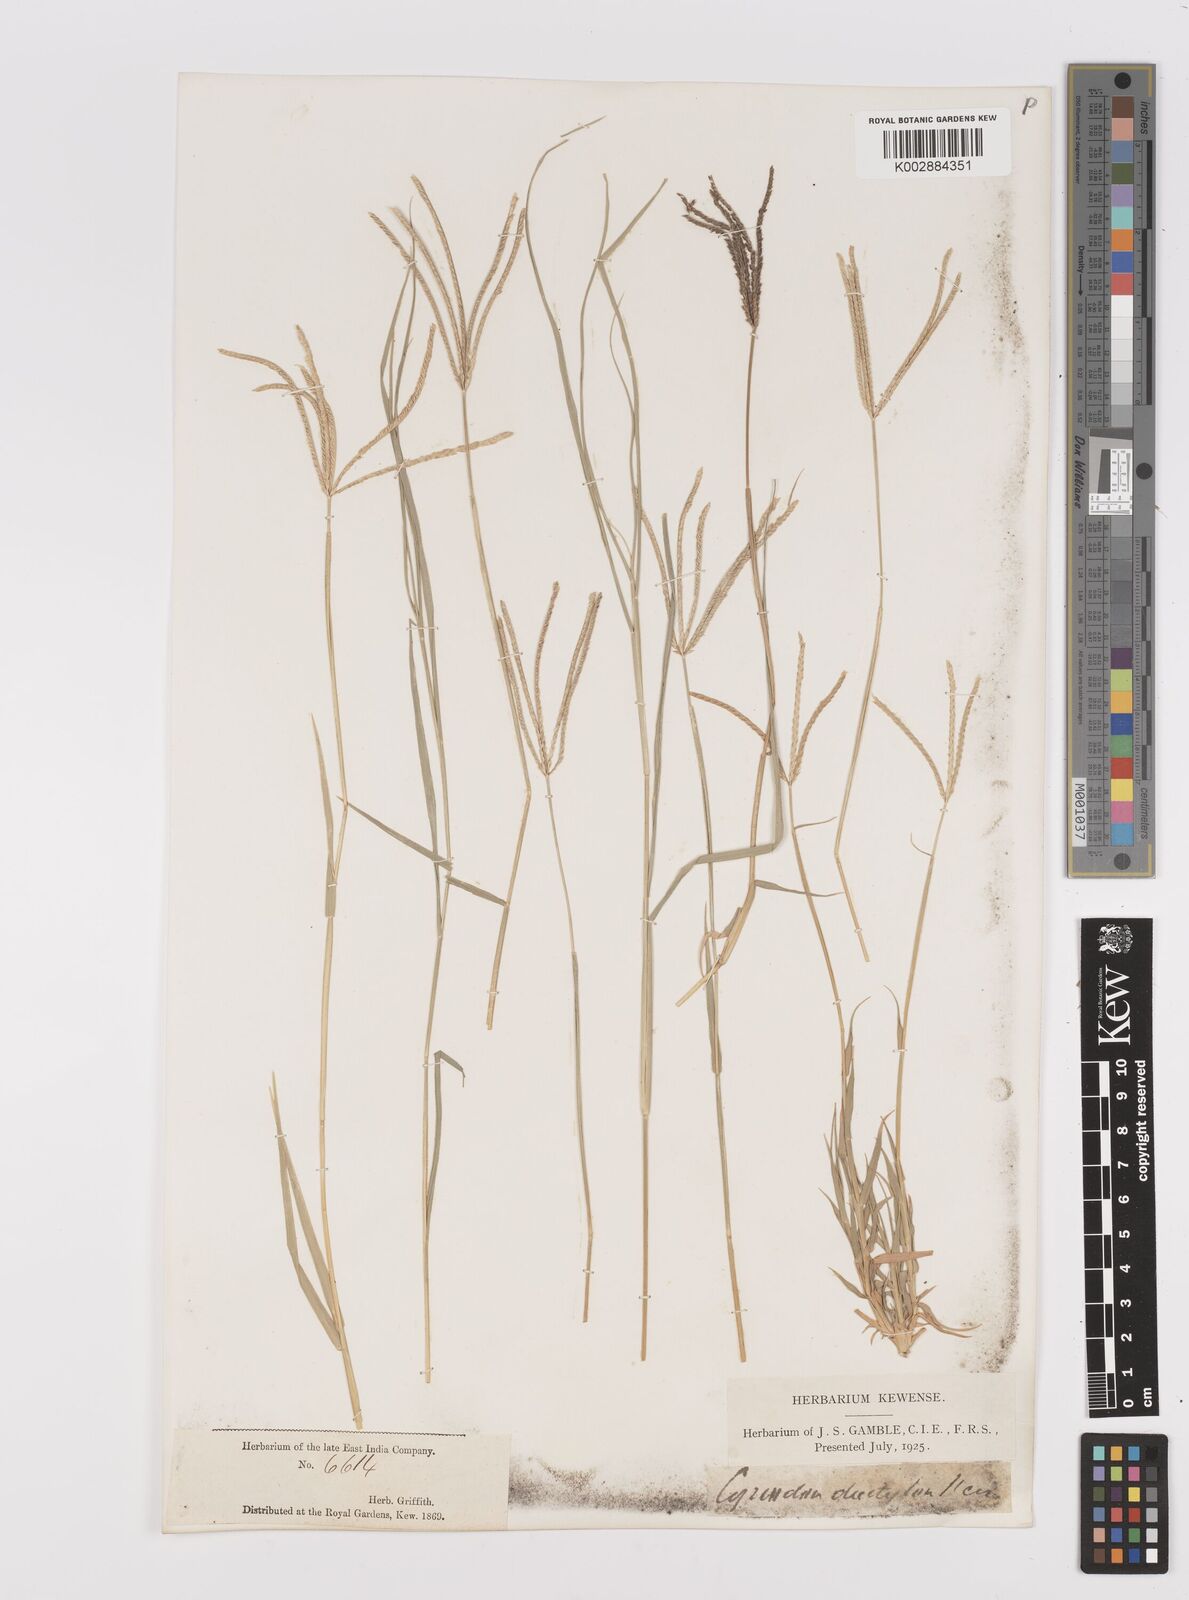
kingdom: Plantae
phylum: Tracheophyta
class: Liliopsida
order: Poales
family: Poaceae
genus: Cynodon
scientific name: Cynodon dactylon
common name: Bermuda grass
